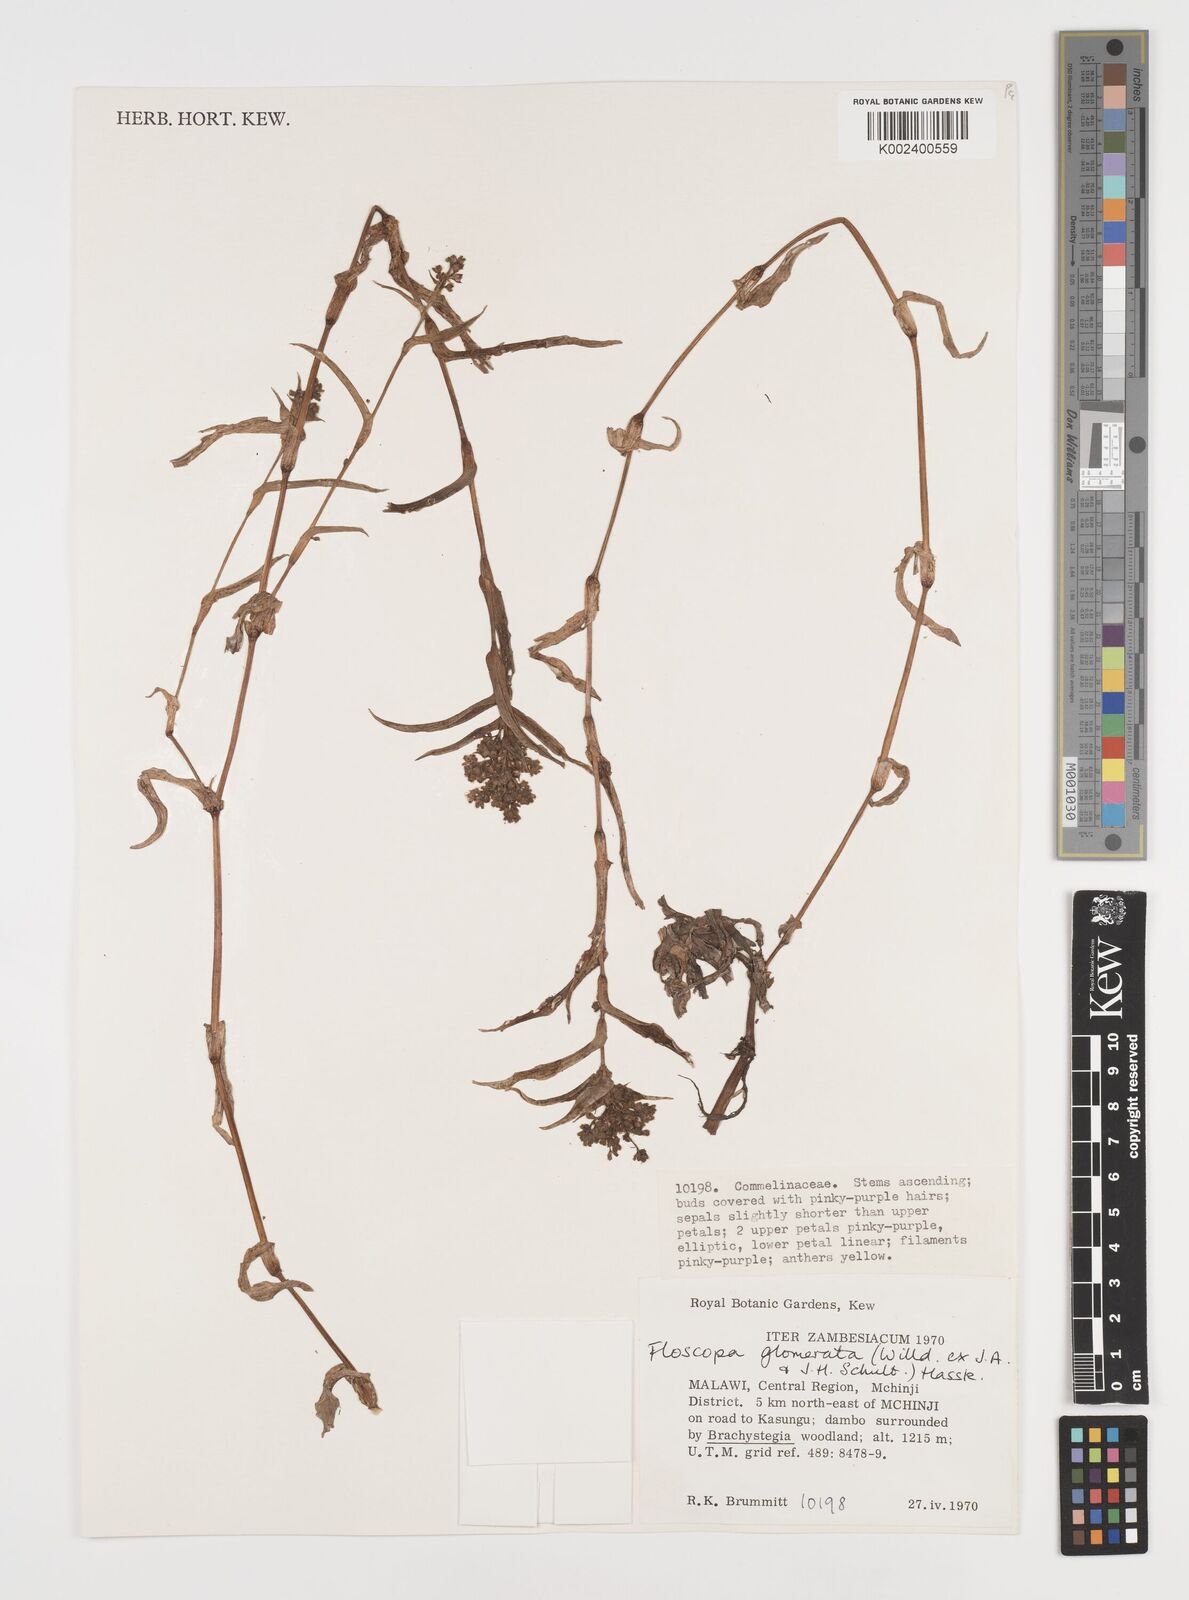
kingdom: Plantae
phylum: Tracheophyta
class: Liliopsida
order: Commelinales
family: Commelinaceae
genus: Floscopa
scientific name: Floscopa glomerata
